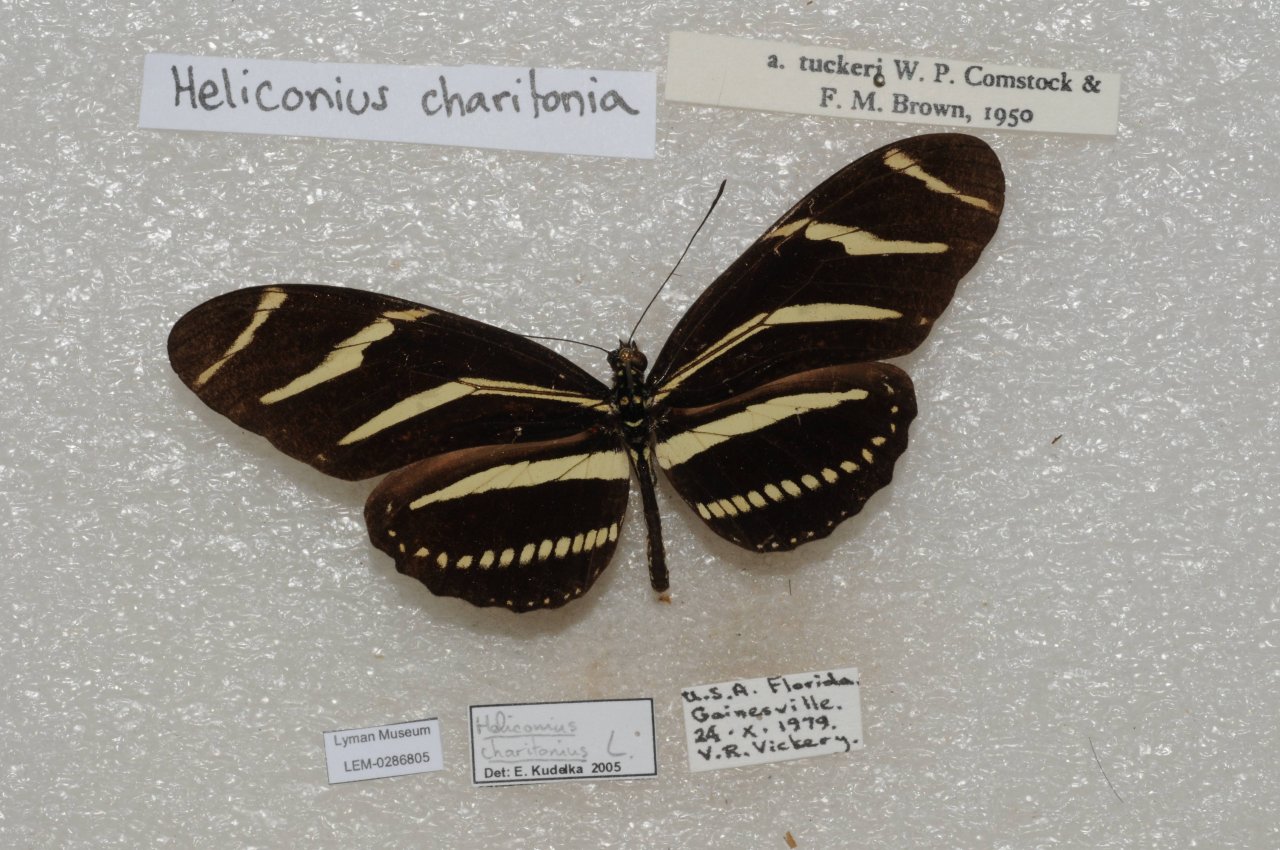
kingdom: Animalia
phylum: Arthropoda
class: Insecta
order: Lepidoptera
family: Nymphalidae
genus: Heliconius
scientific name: Heliconius charithonia
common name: Zebra Longwing
